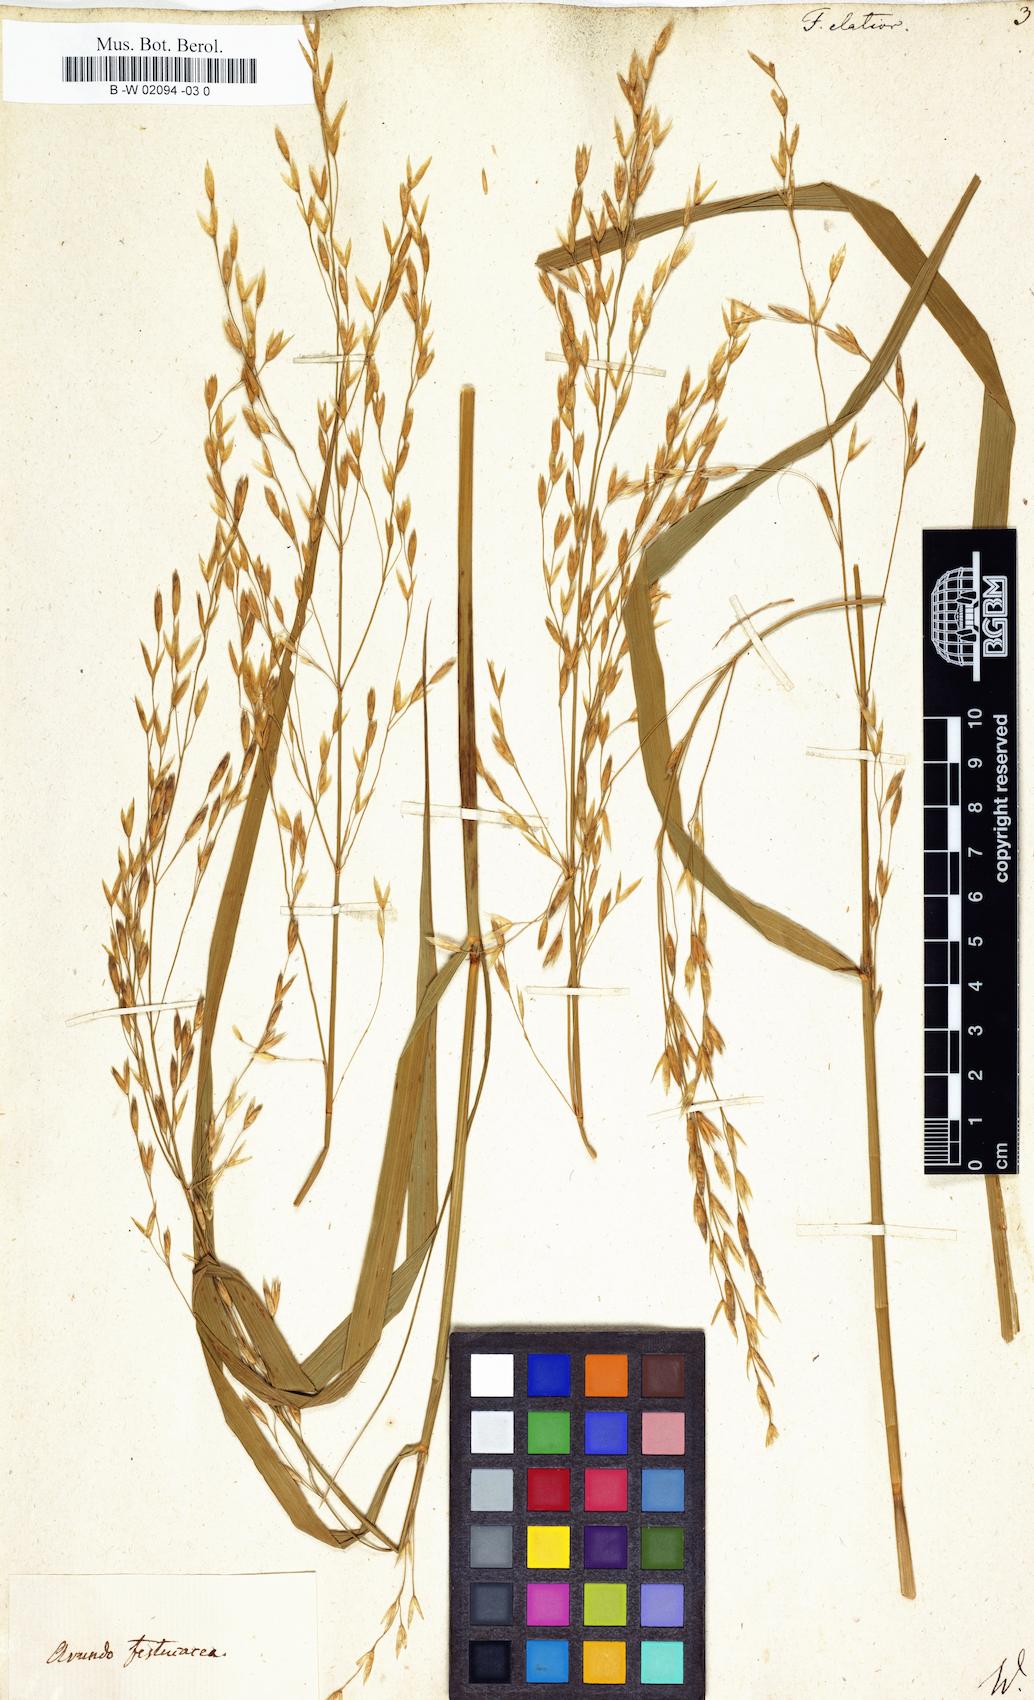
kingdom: Plantae
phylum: Tracheophyta
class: Liliopsida
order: Poales
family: Poaceae
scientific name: Poaceae
